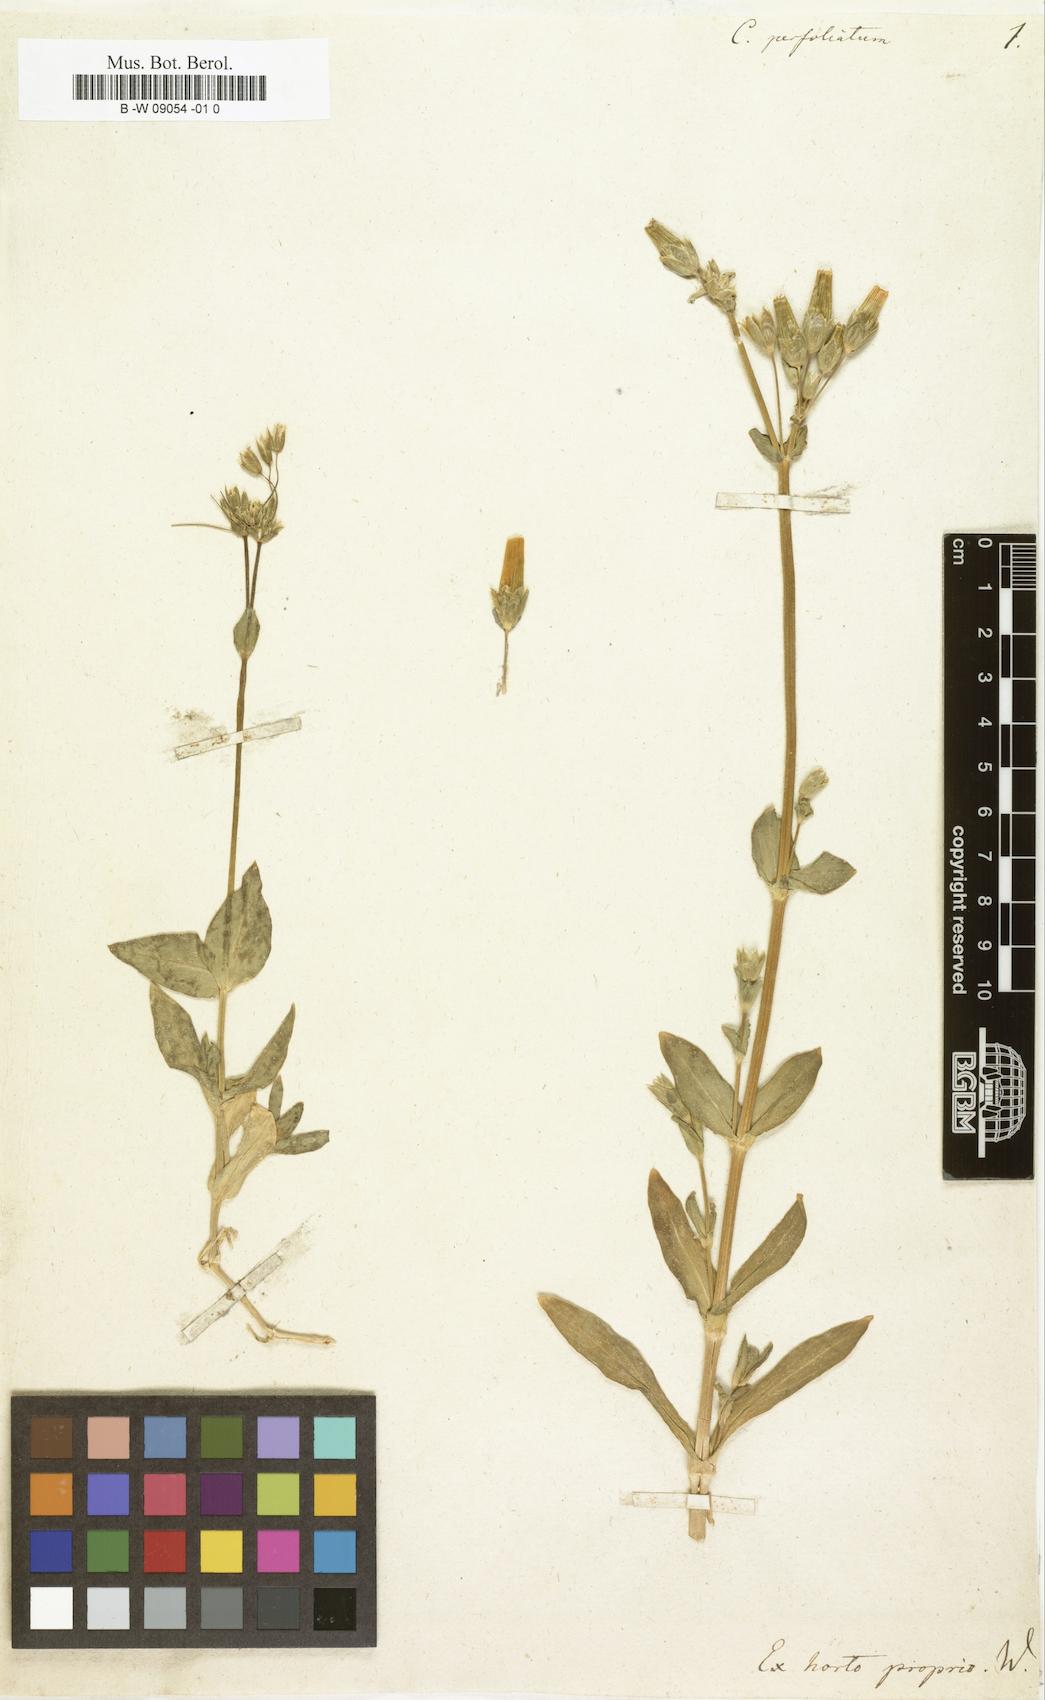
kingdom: Plantae
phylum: Tracheophyta
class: Magnoliopsida
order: Caryophyllales
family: Caryophyllaceae
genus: Dichodon
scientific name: Dichodon
